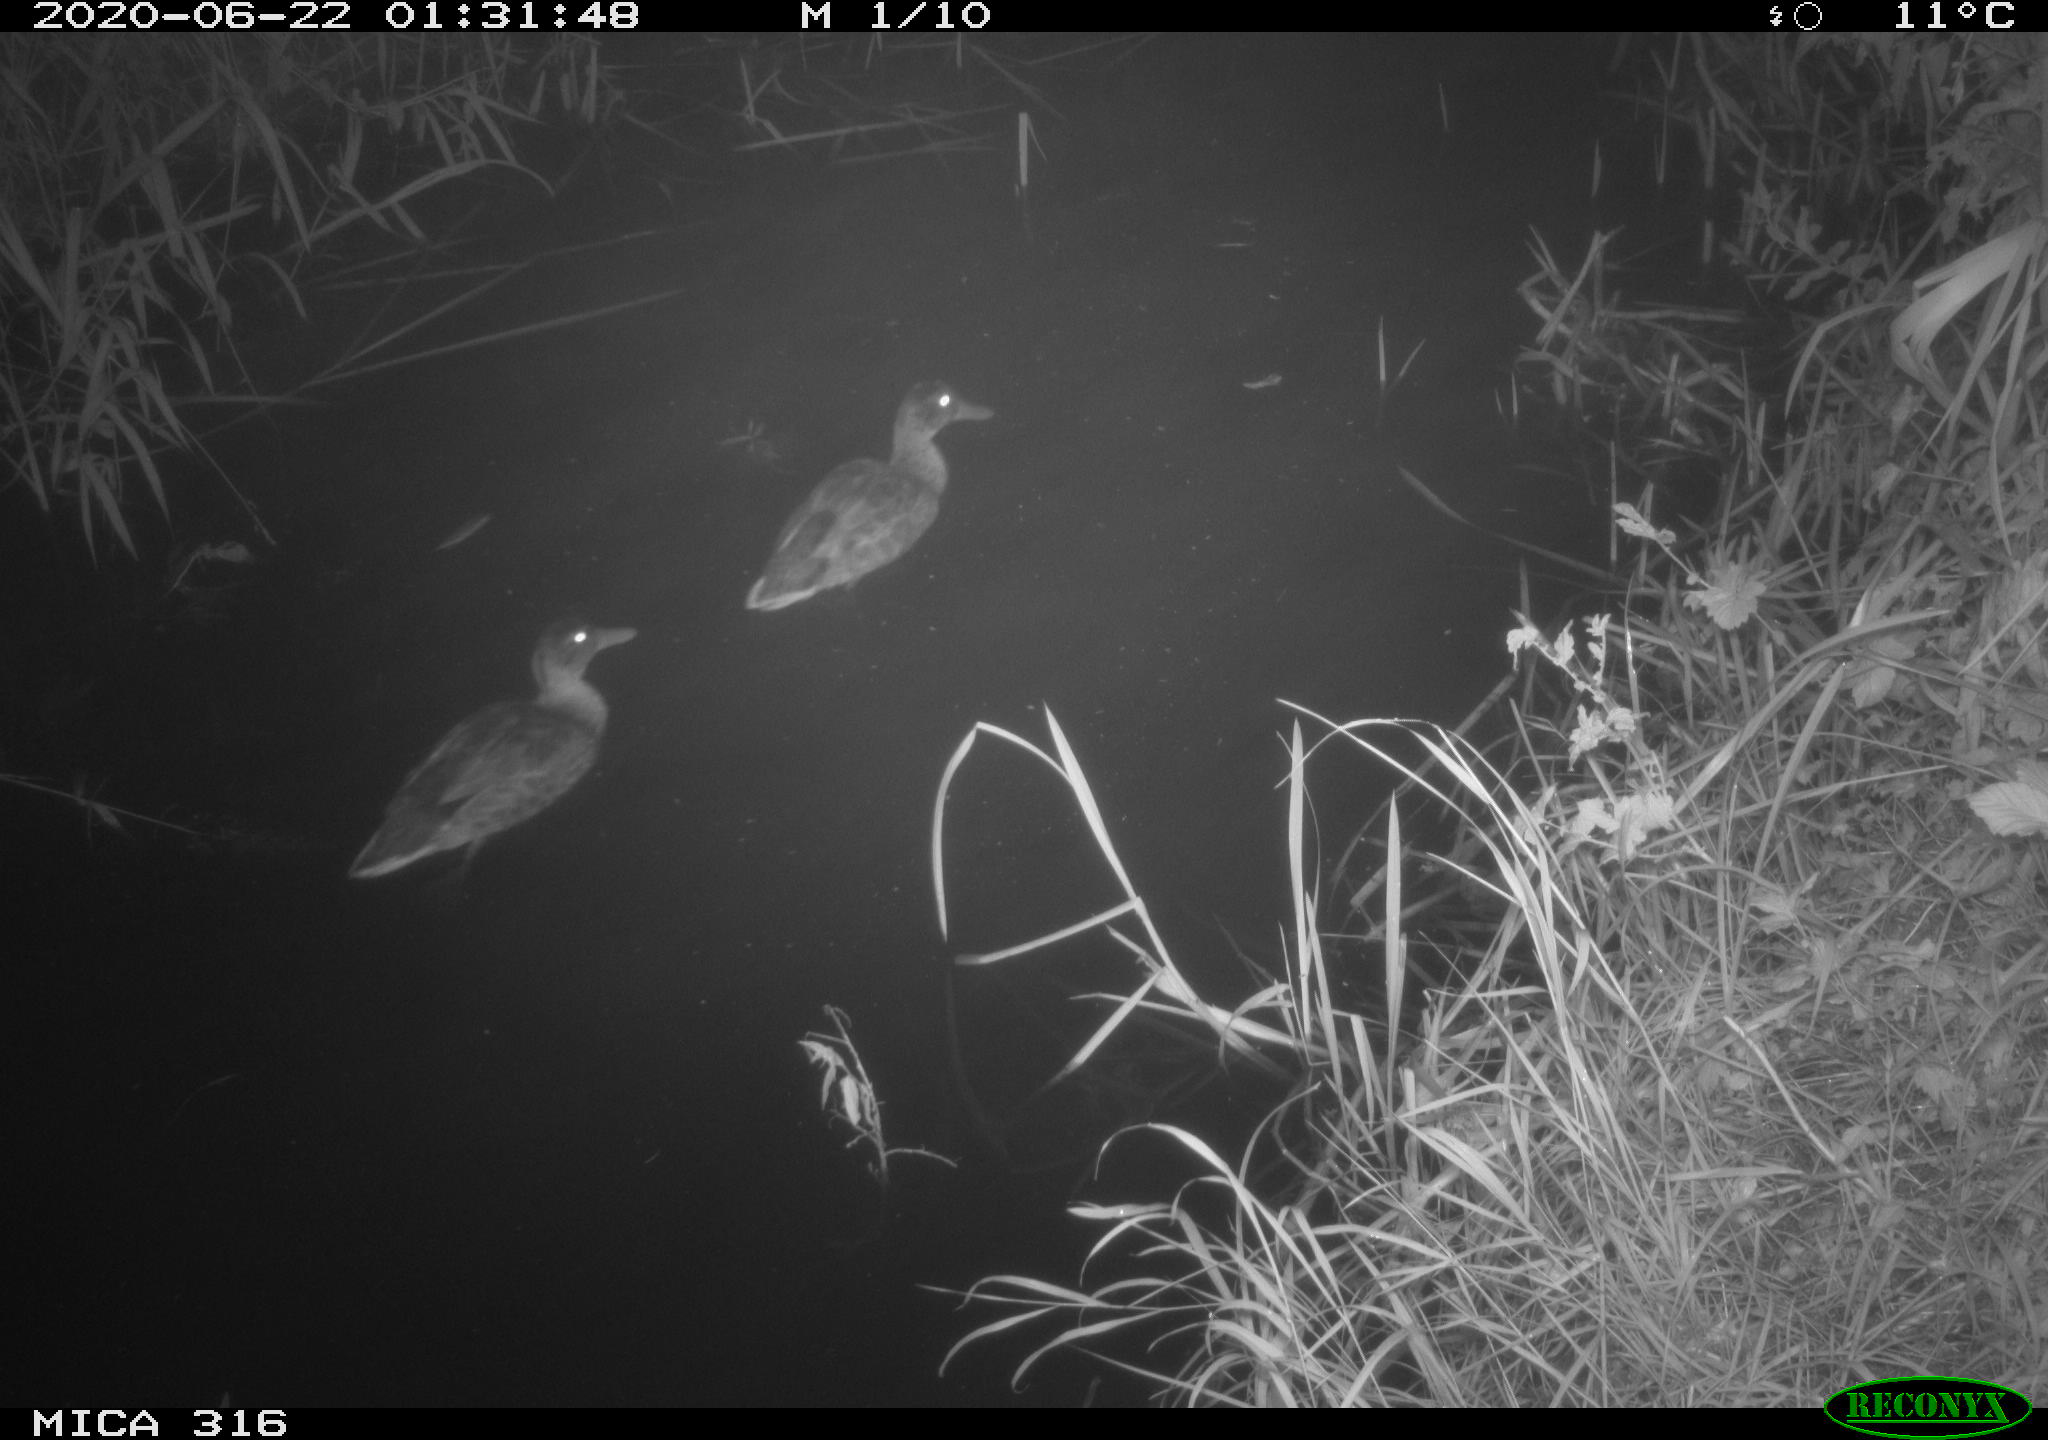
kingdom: Animalia
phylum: Chordata
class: Aves
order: Anseriformes
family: Anatidae
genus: Anas
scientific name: Anas platyrhynchos
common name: Mallard
